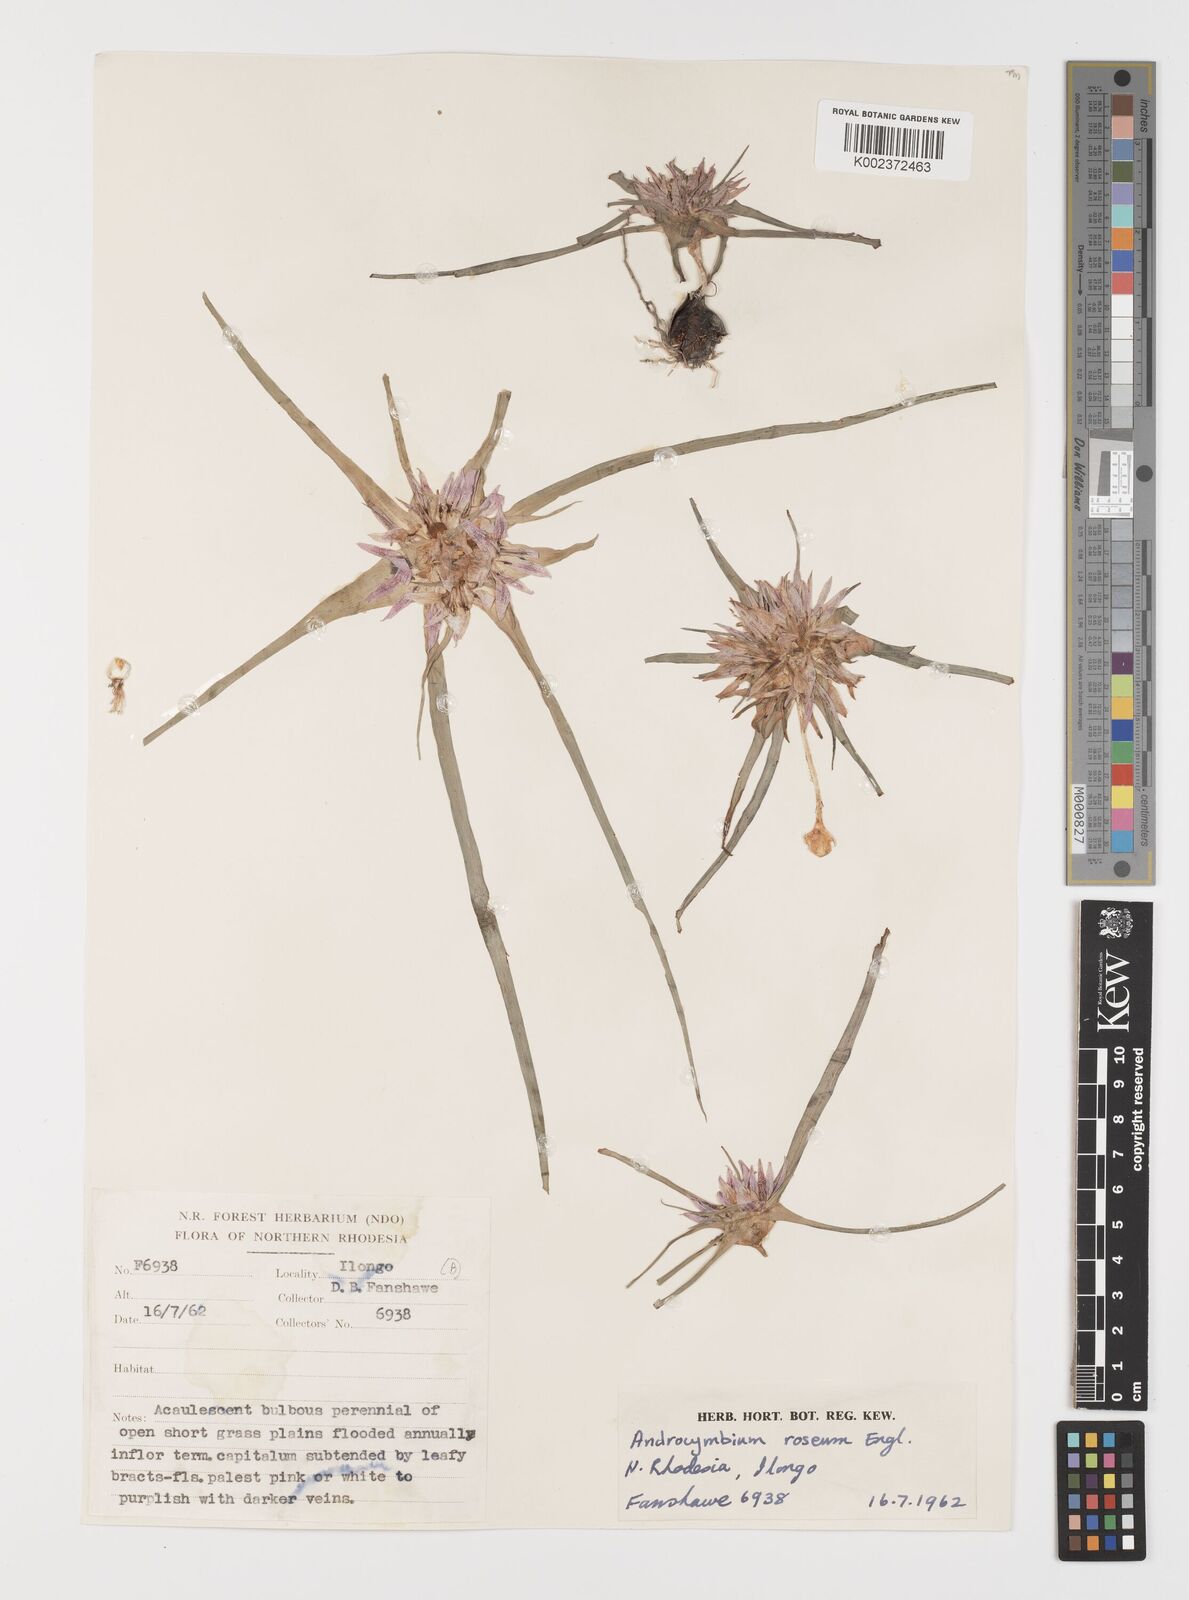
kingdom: Plantae
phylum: Tracheophyta
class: Liliopsida
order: Liliales
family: Colchicaceae
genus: Colchicum
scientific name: Colchicum roseum
